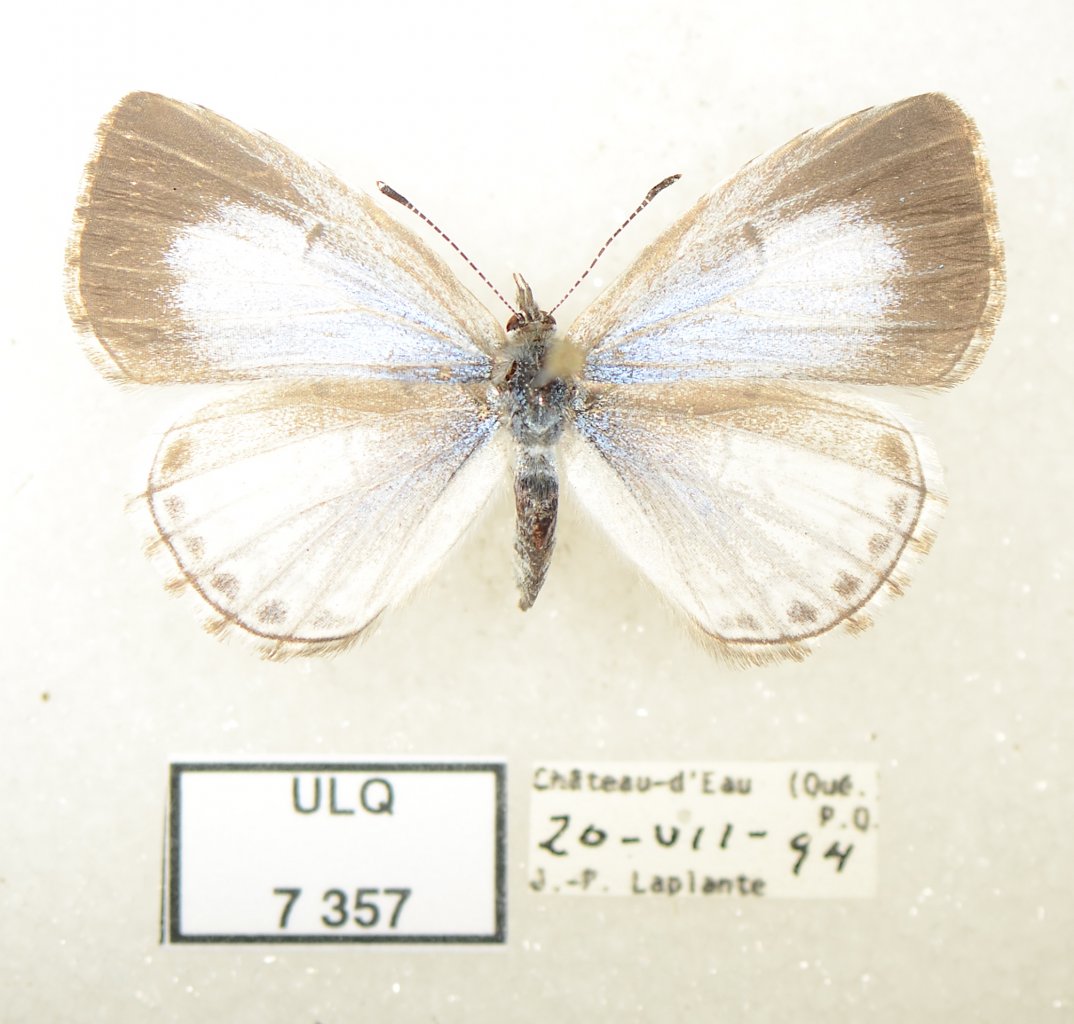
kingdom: Animalia
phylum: Arthropoda
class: Insecta
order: Lepidoptera
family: Lycaenidae
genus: Celastrina
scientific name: Celastrina lucia
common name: Northern Spring Azure
